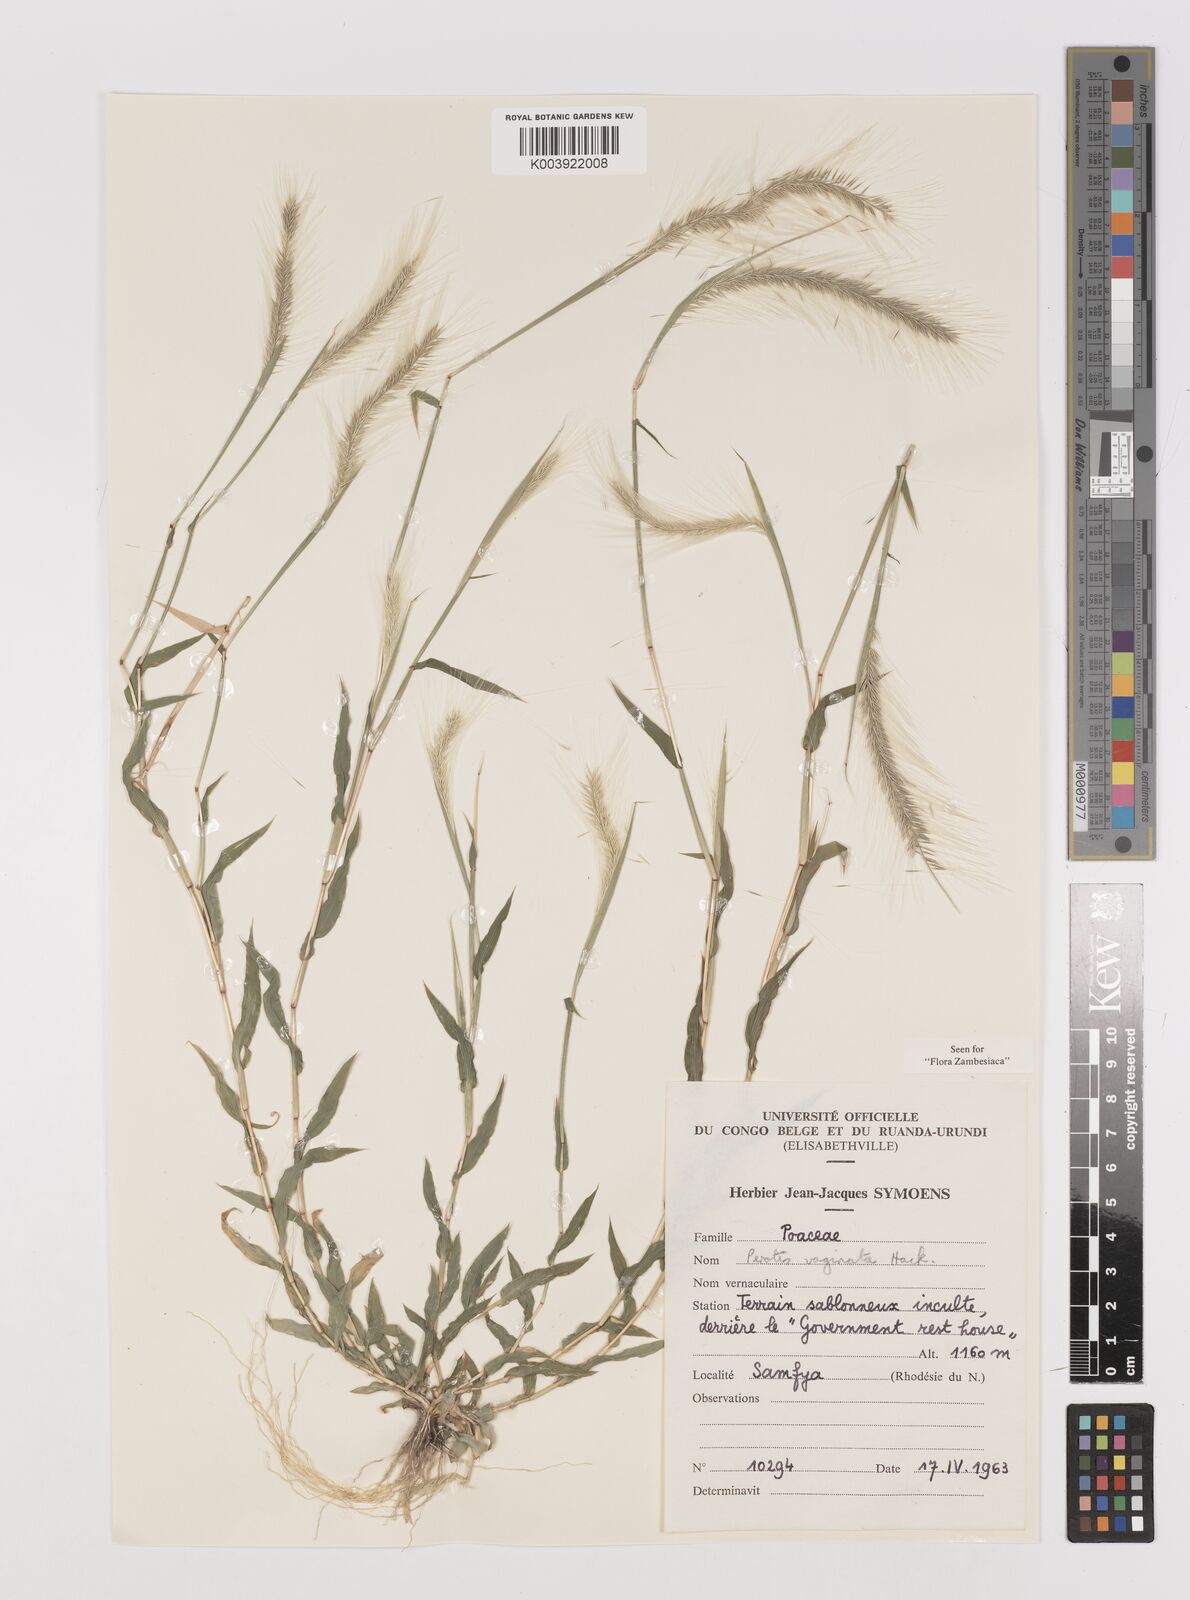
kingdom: Plantae
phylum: Tracheophyta
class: Liliopsida
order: Poales
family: Poaceae
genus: Perotis
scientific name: Perotis vaginata
